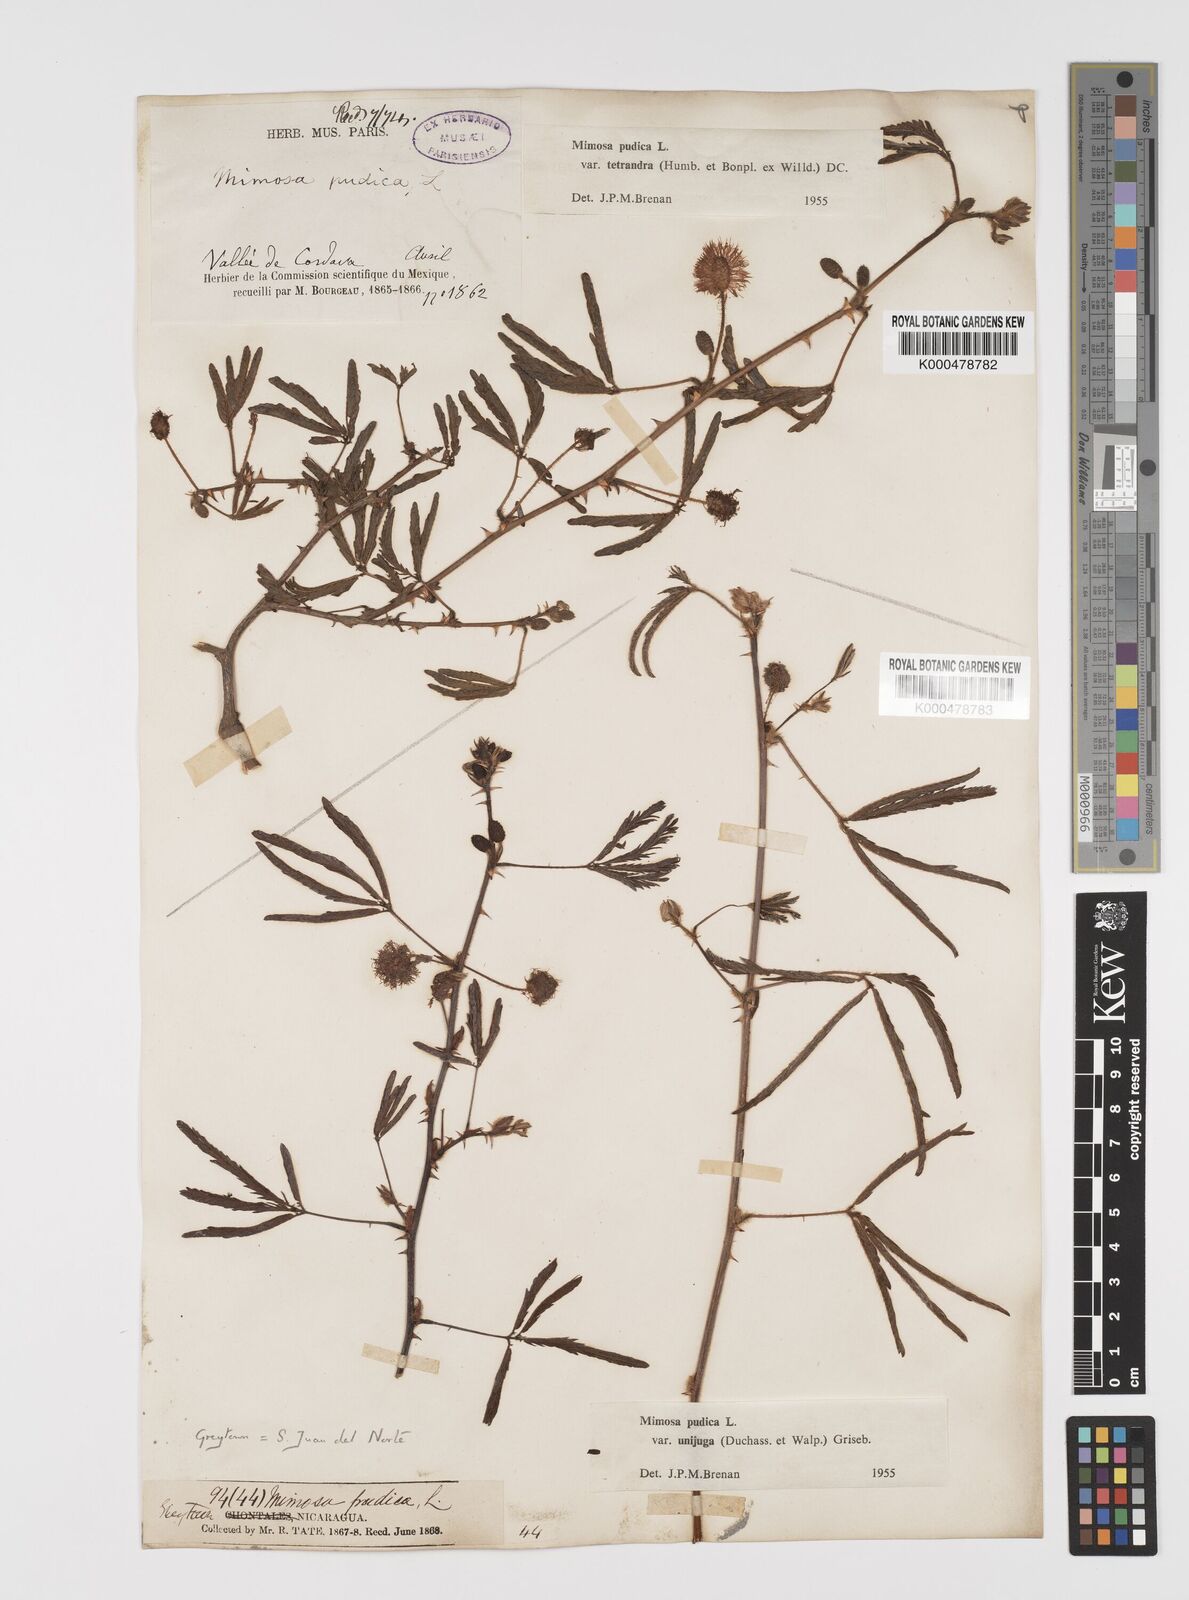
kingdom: Plantae
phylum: Tracheophyta
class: Magnoliopsida
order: Fabales
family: Fabaceae
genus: Mimosa
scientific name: Mimosa pudica
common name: Sensitive plant
